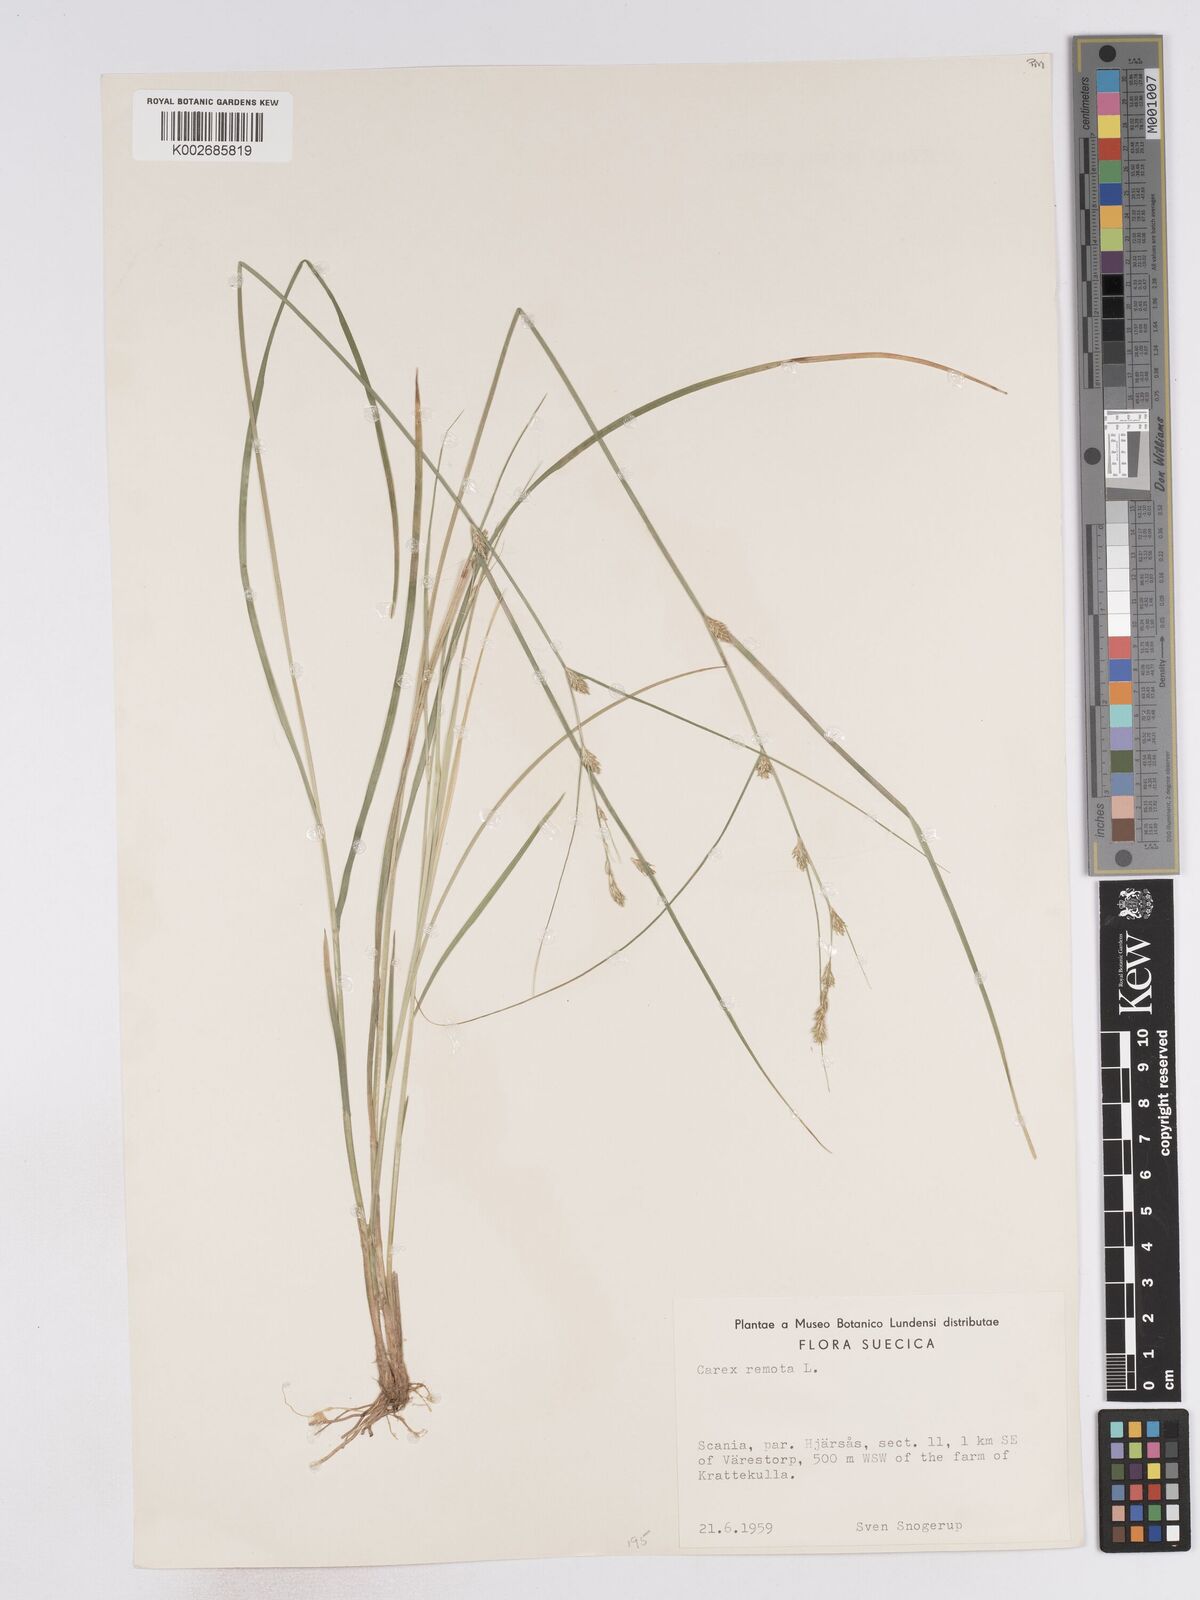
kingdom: Plantae
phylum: Tracheophyta
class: Liliopsida
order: Poales
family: Cyperaceae
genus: Carex
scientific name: Carex remota
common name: Remote sedge
